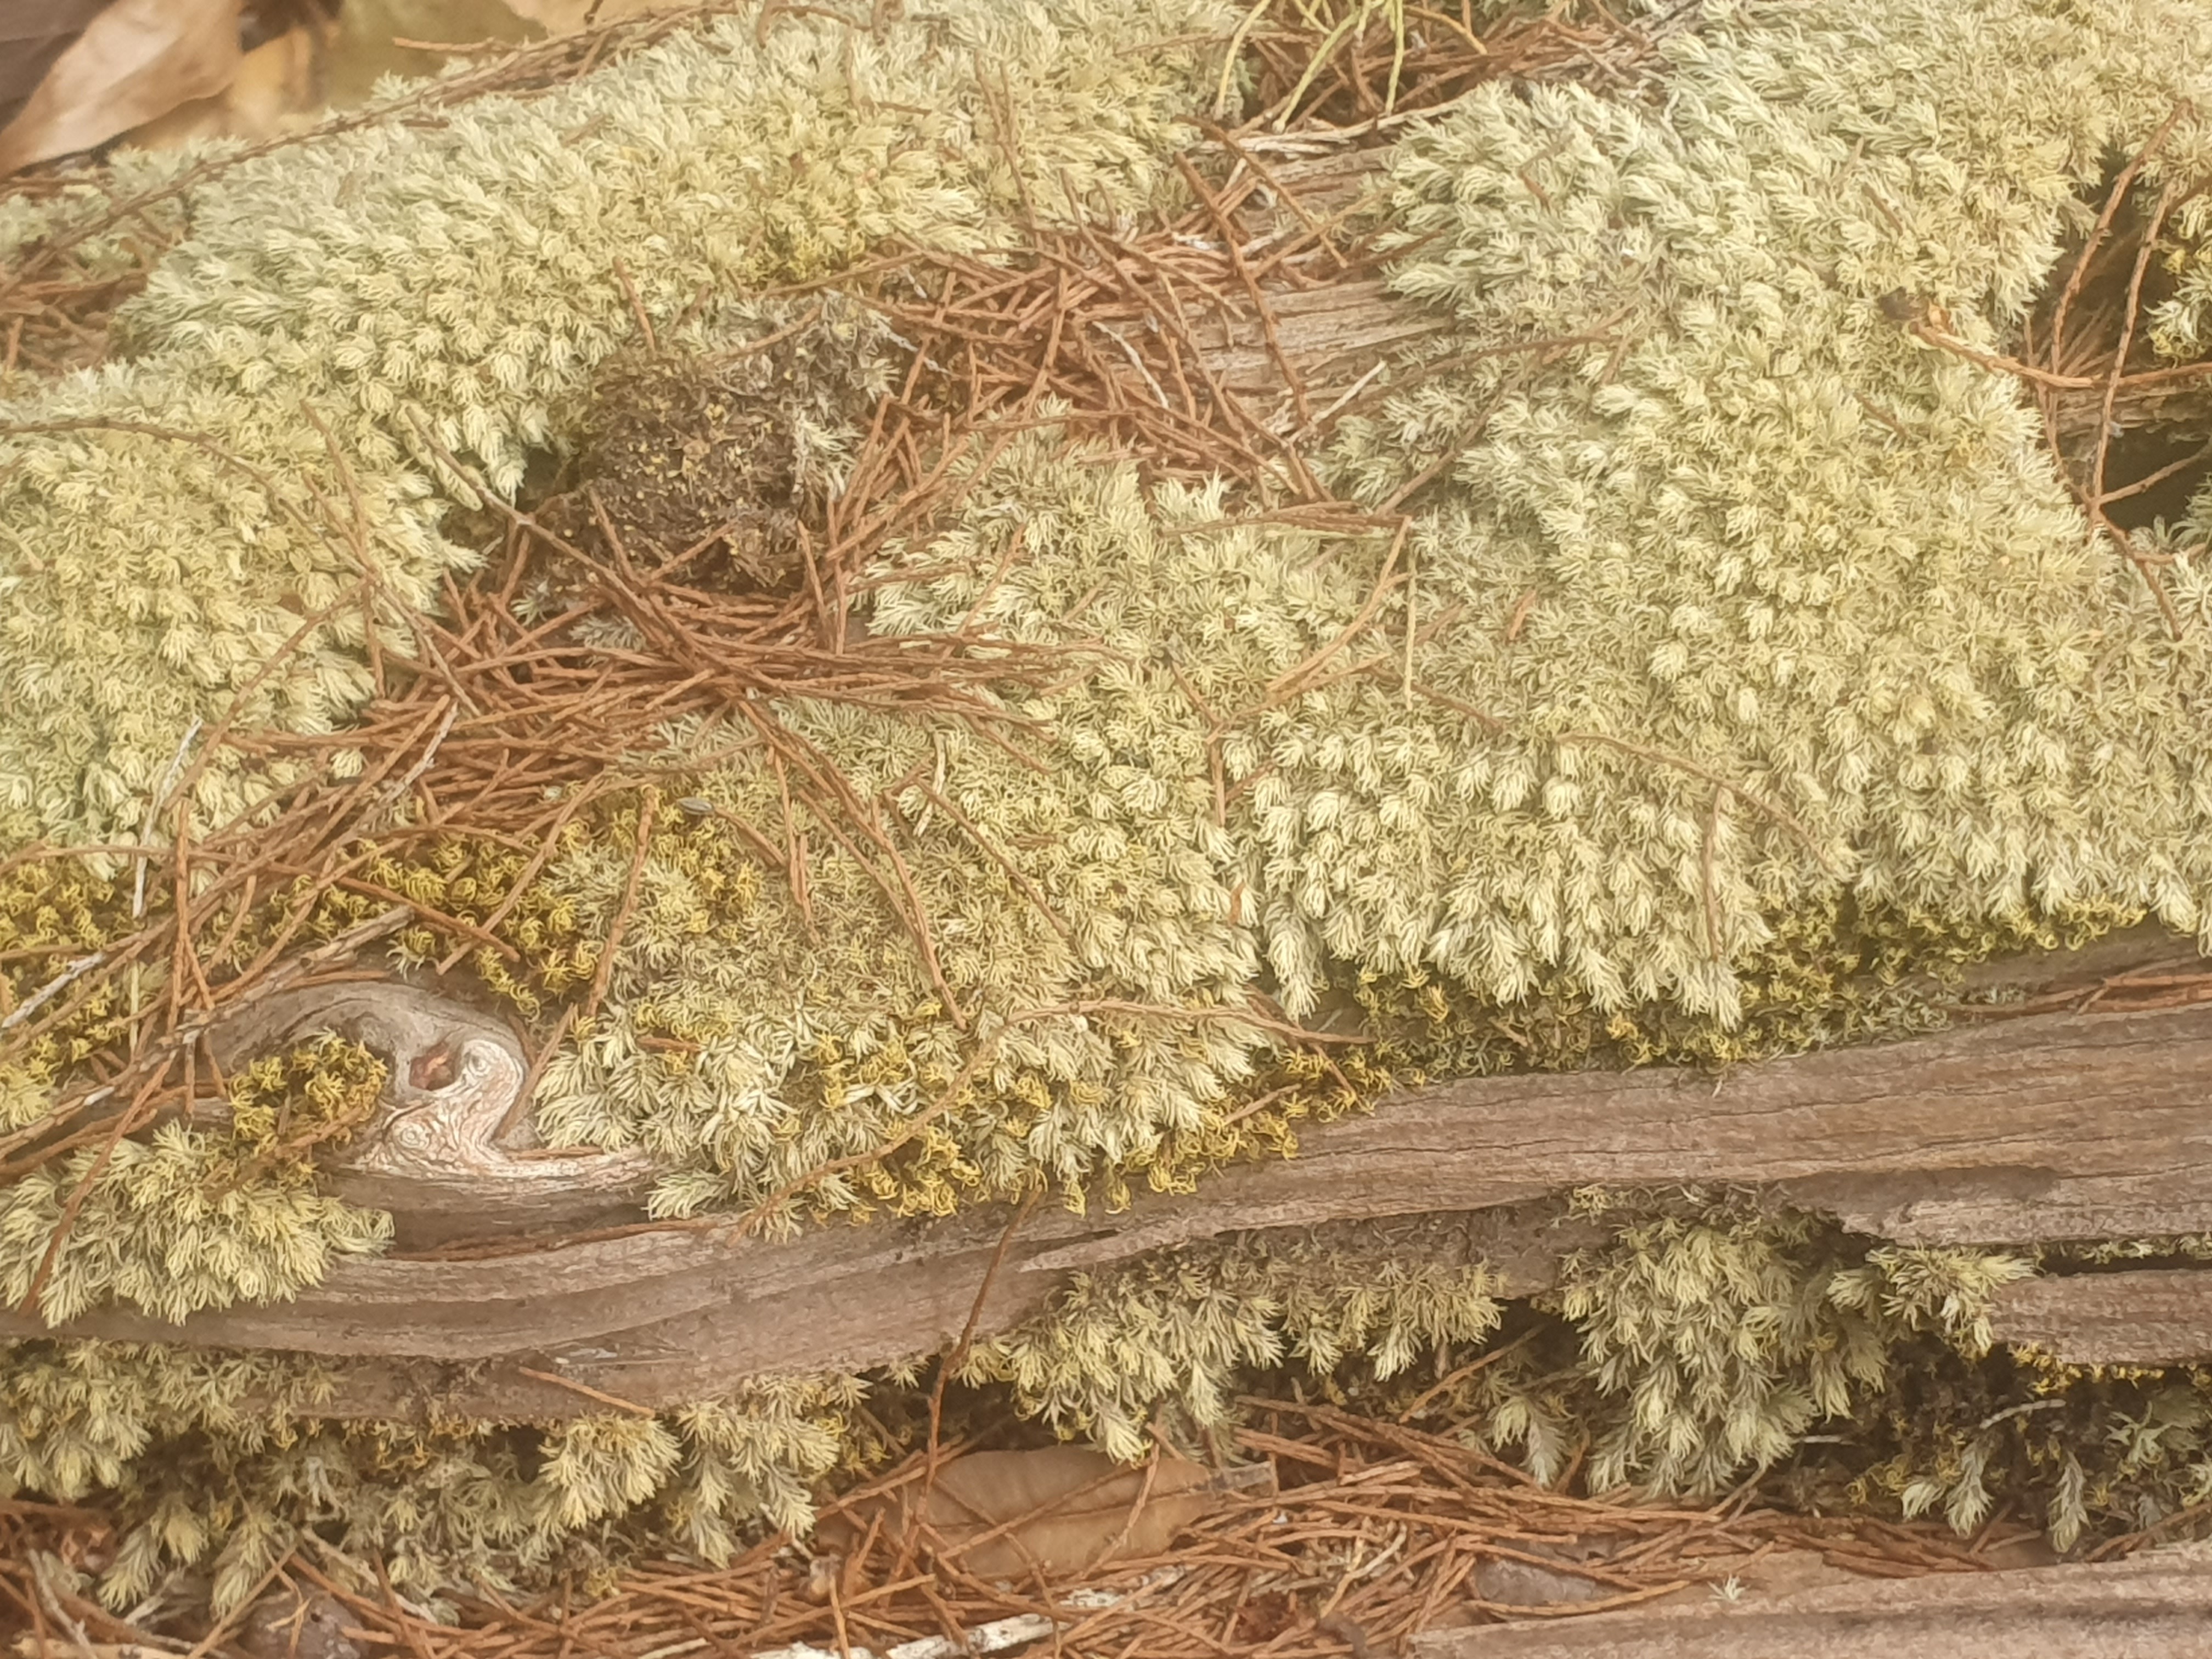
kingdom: Plantae
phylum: Bryophyta
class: Bryopsida
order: Dicranales
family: Leucobryaceae
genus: Leucobryum
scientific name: Leucobryum aduncum
